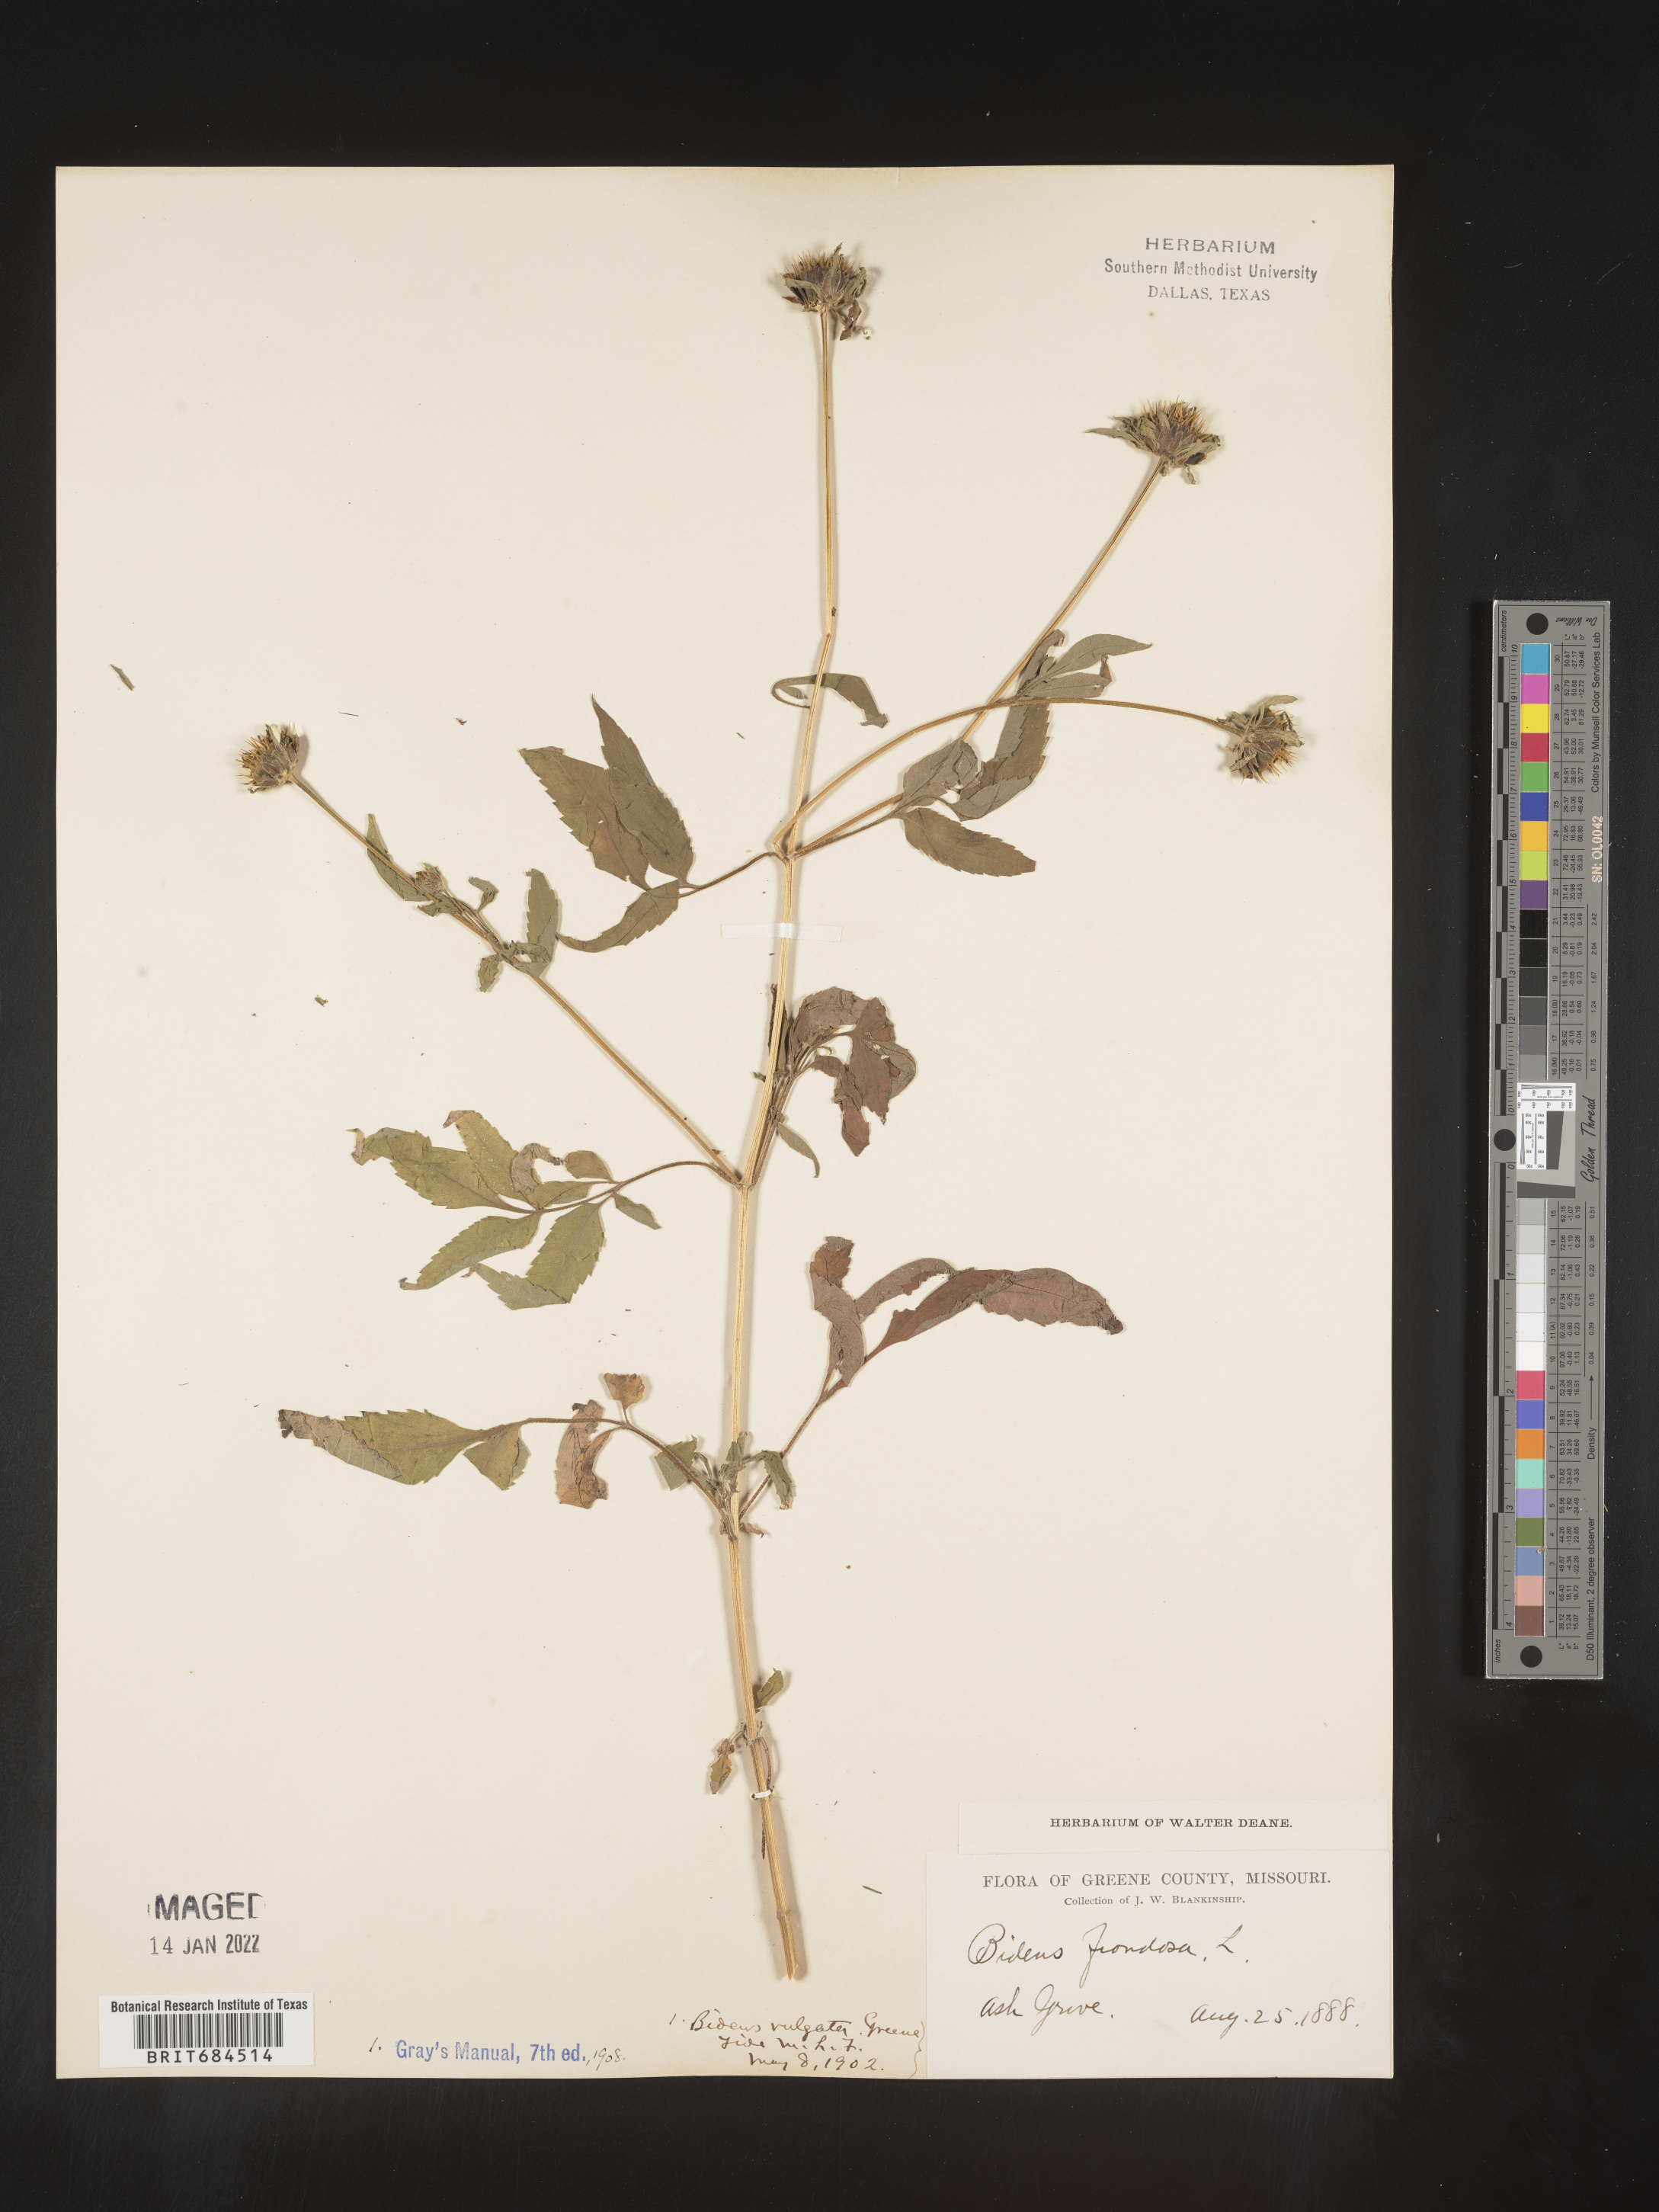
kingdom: Plantae
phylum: Tracheophyta
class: Magnoliopsida
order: Asterales
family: Asteraceae
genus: Bidens
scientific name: Bidens frondosa
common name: Beggarticks
